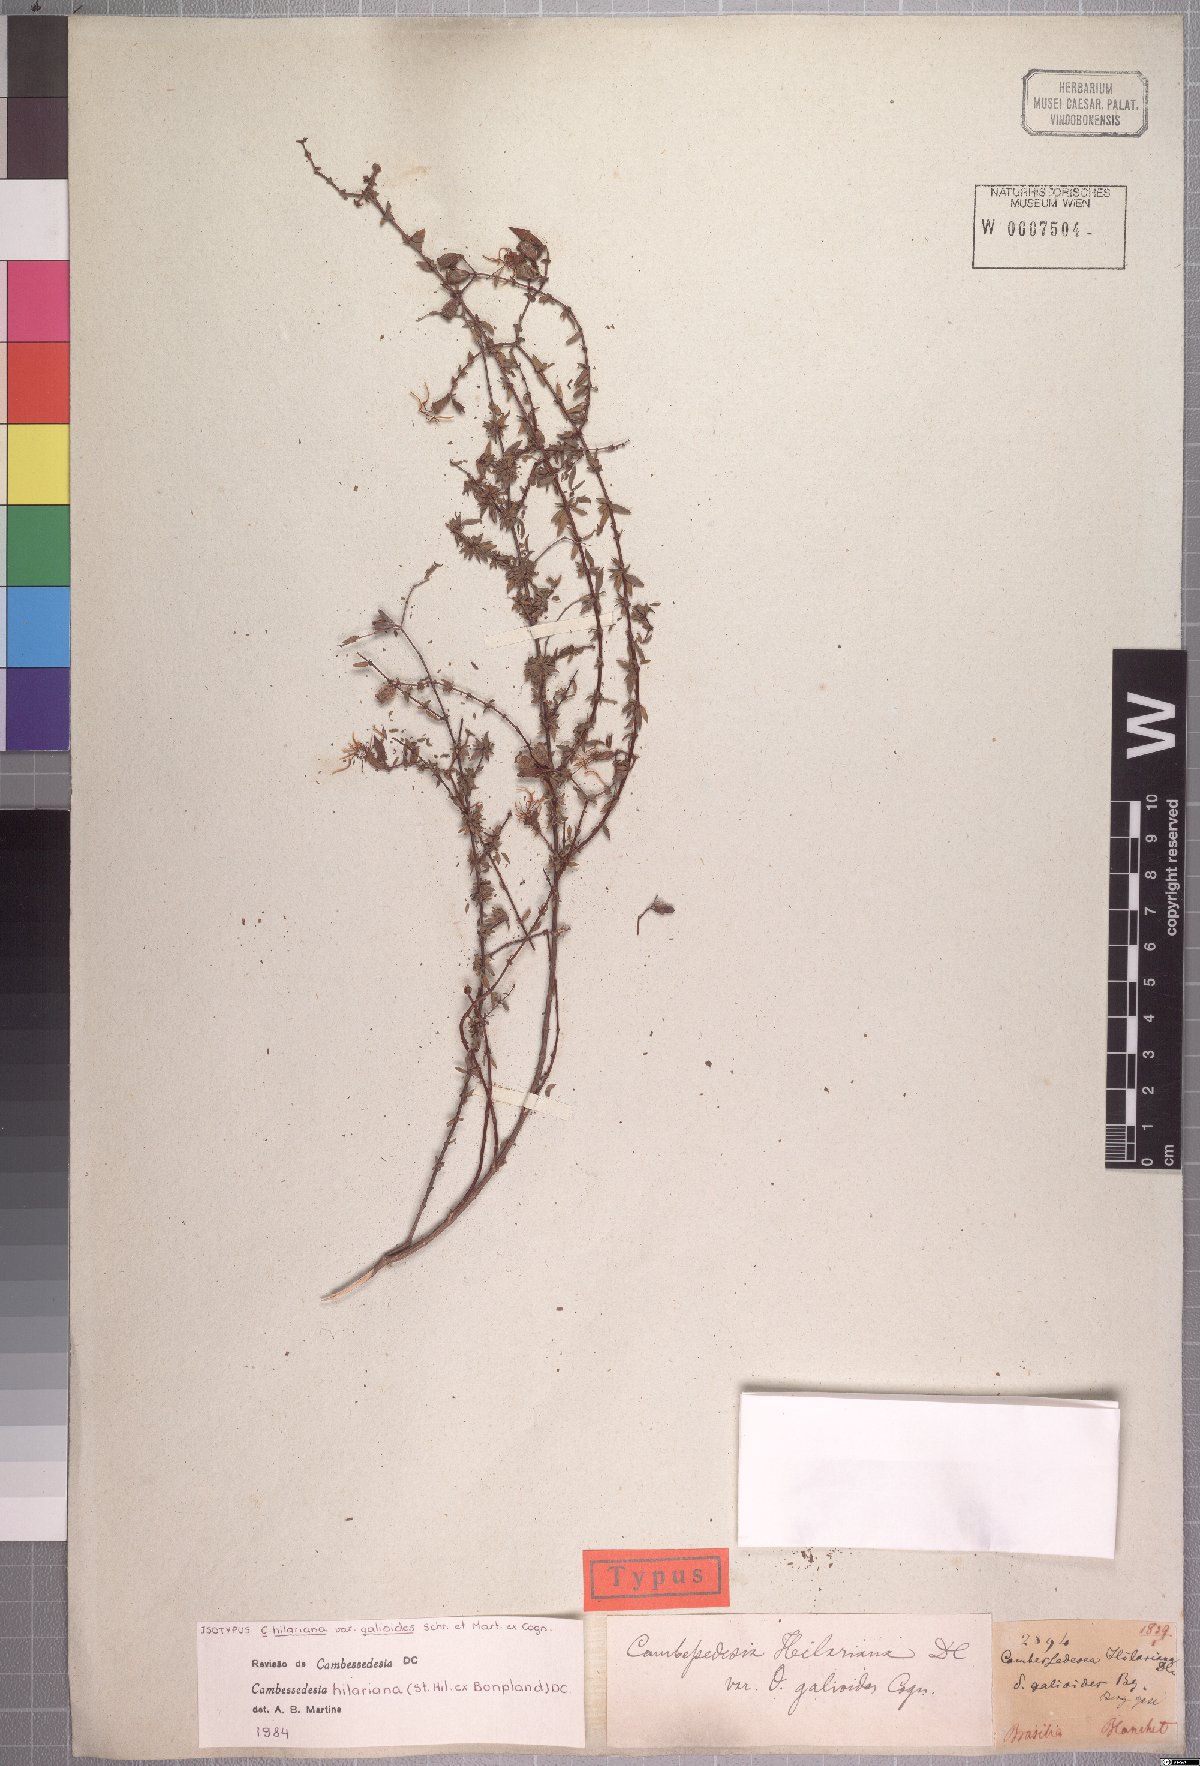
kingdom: Plantae
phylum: Tracheophyta
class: Magnoliopsida
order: Myrtales
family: Melastomataceae
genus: Cambessedesia
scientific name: Cambessedesia hilariana
